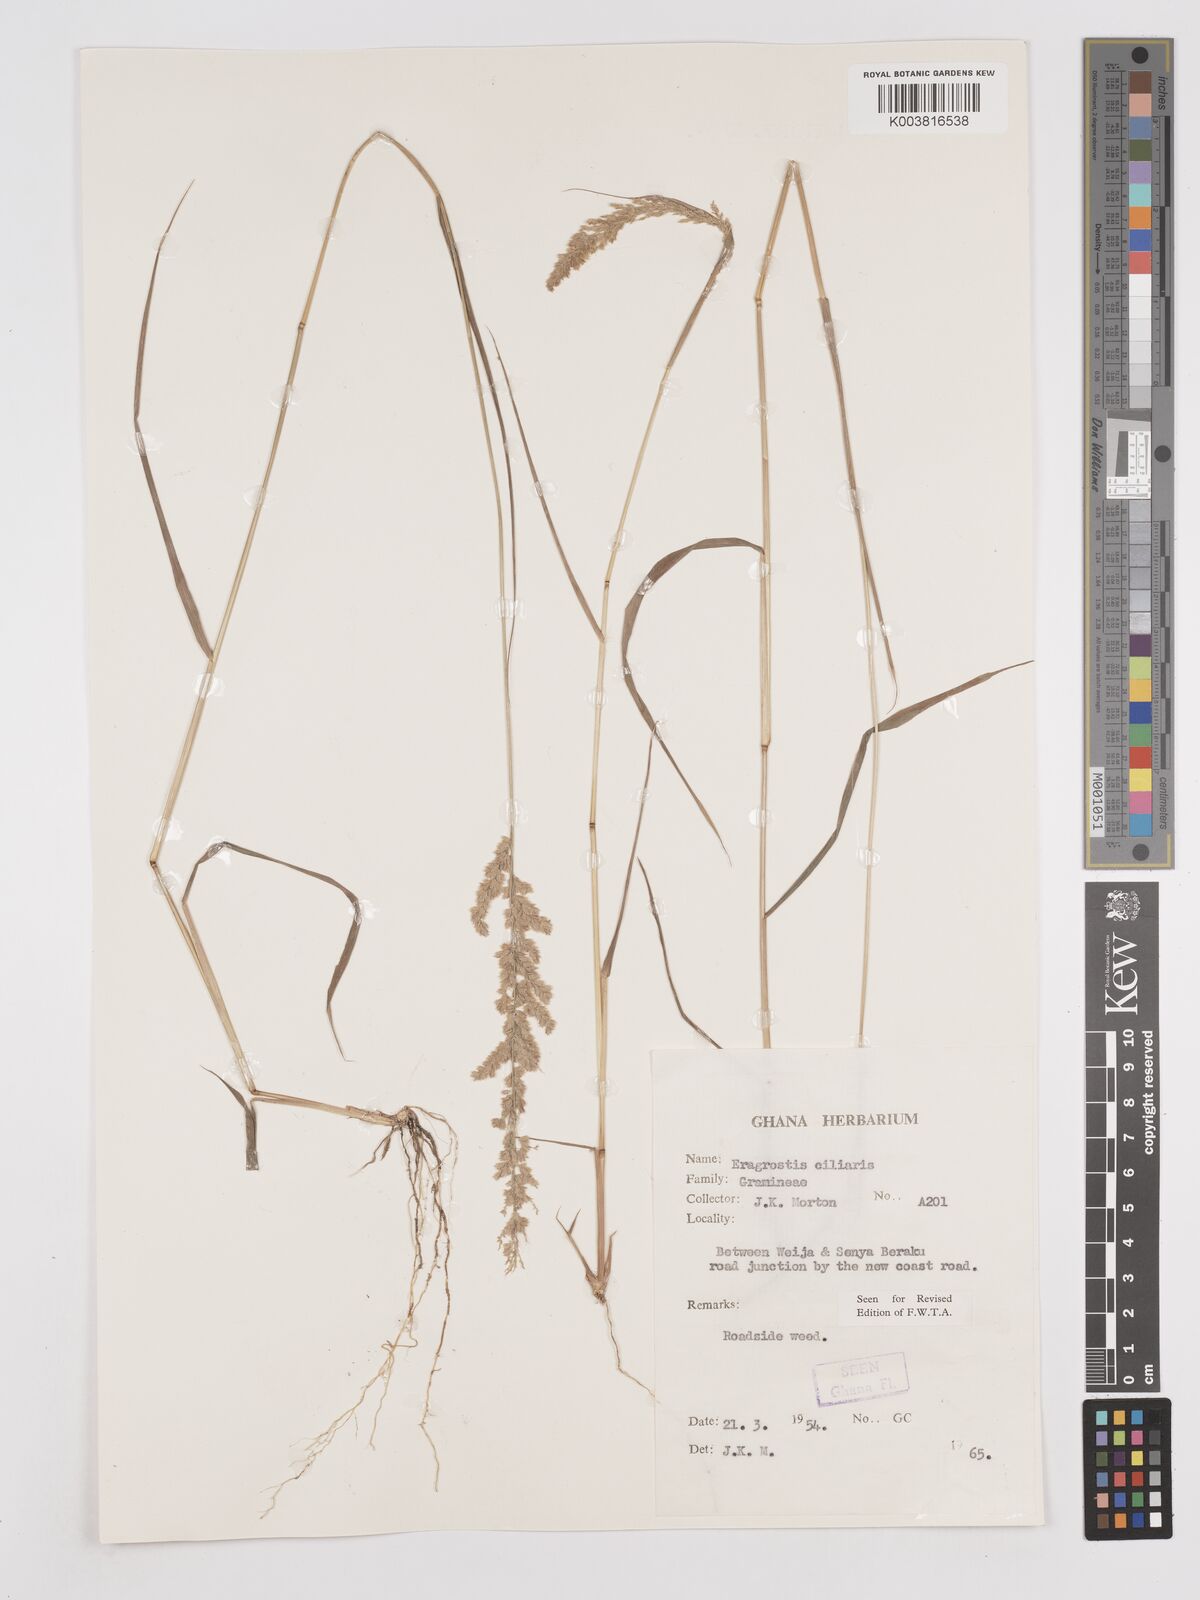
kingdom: Plantae
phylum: Tracheophyta
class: Liliopsida
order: Poales
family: Poaceae
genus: Eragrostis
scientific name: Eragrostis ciliaris
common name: Gophertail lovegrass
